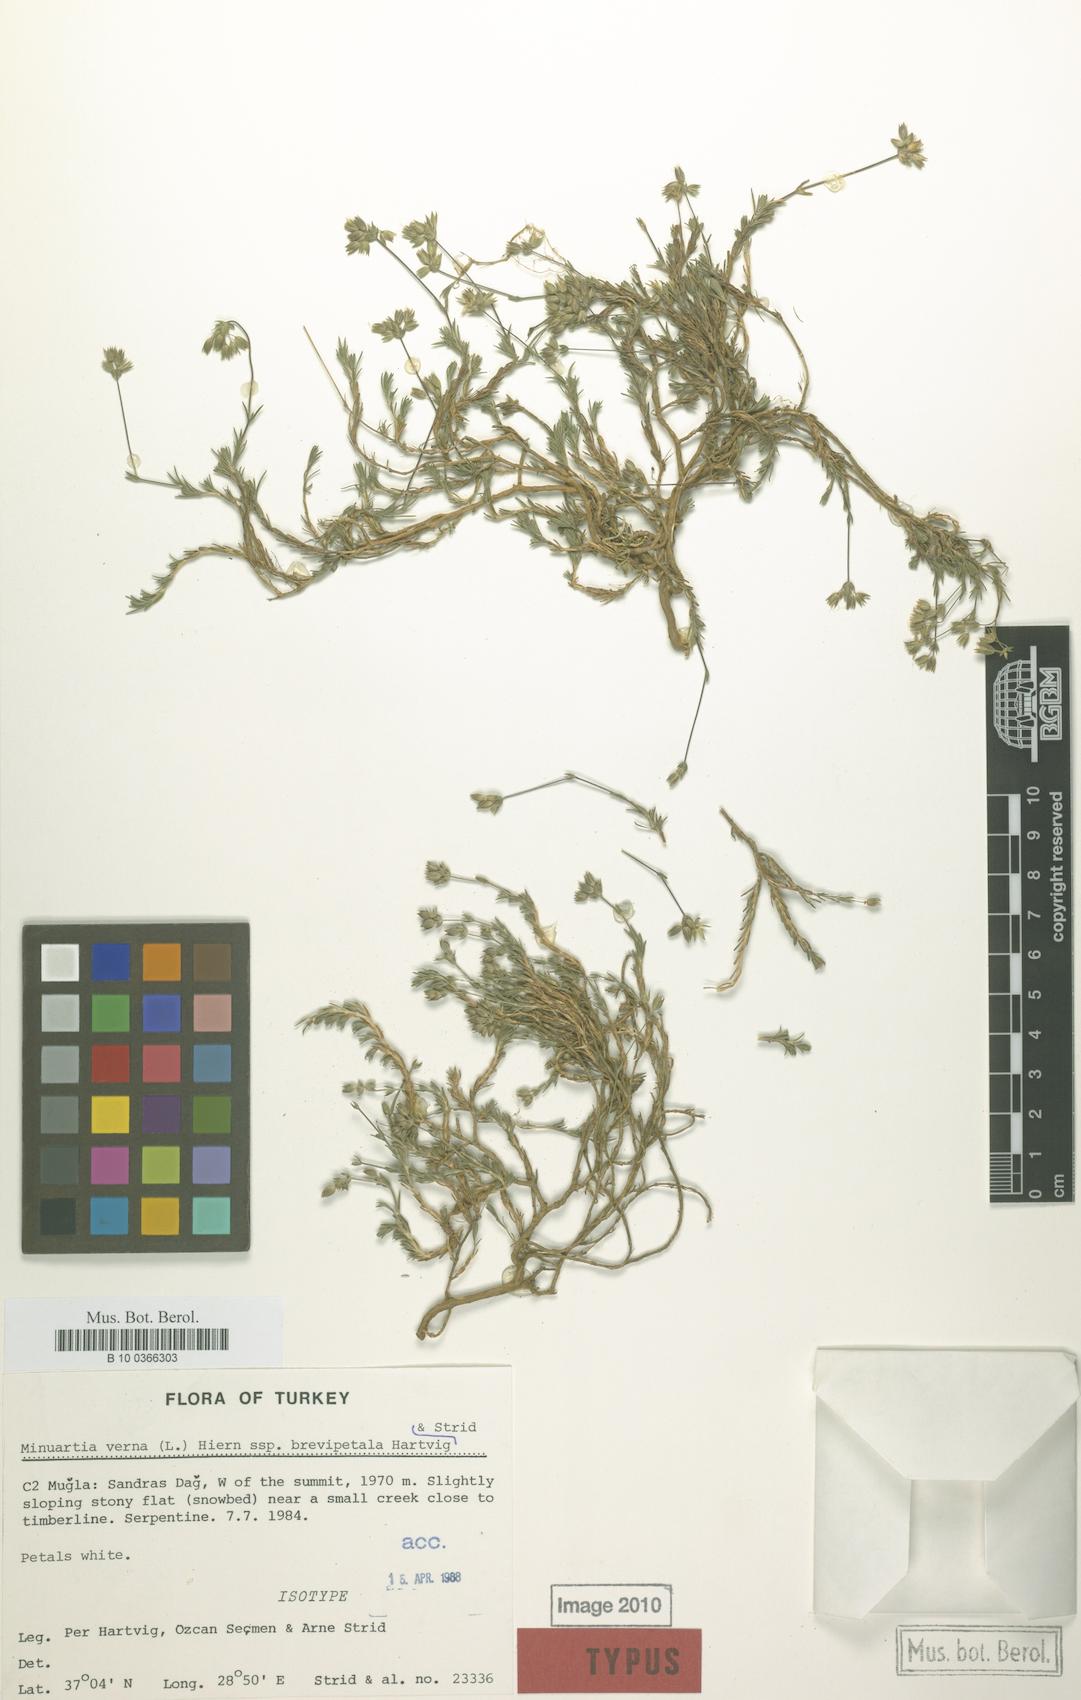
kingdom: Plantae
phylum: Tracheophyta
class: Magnoliopsida
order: Caryophyllales
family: Caryophyllaceae
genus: Sabulina
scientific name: Sabulina verna
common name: Spring sandwort
